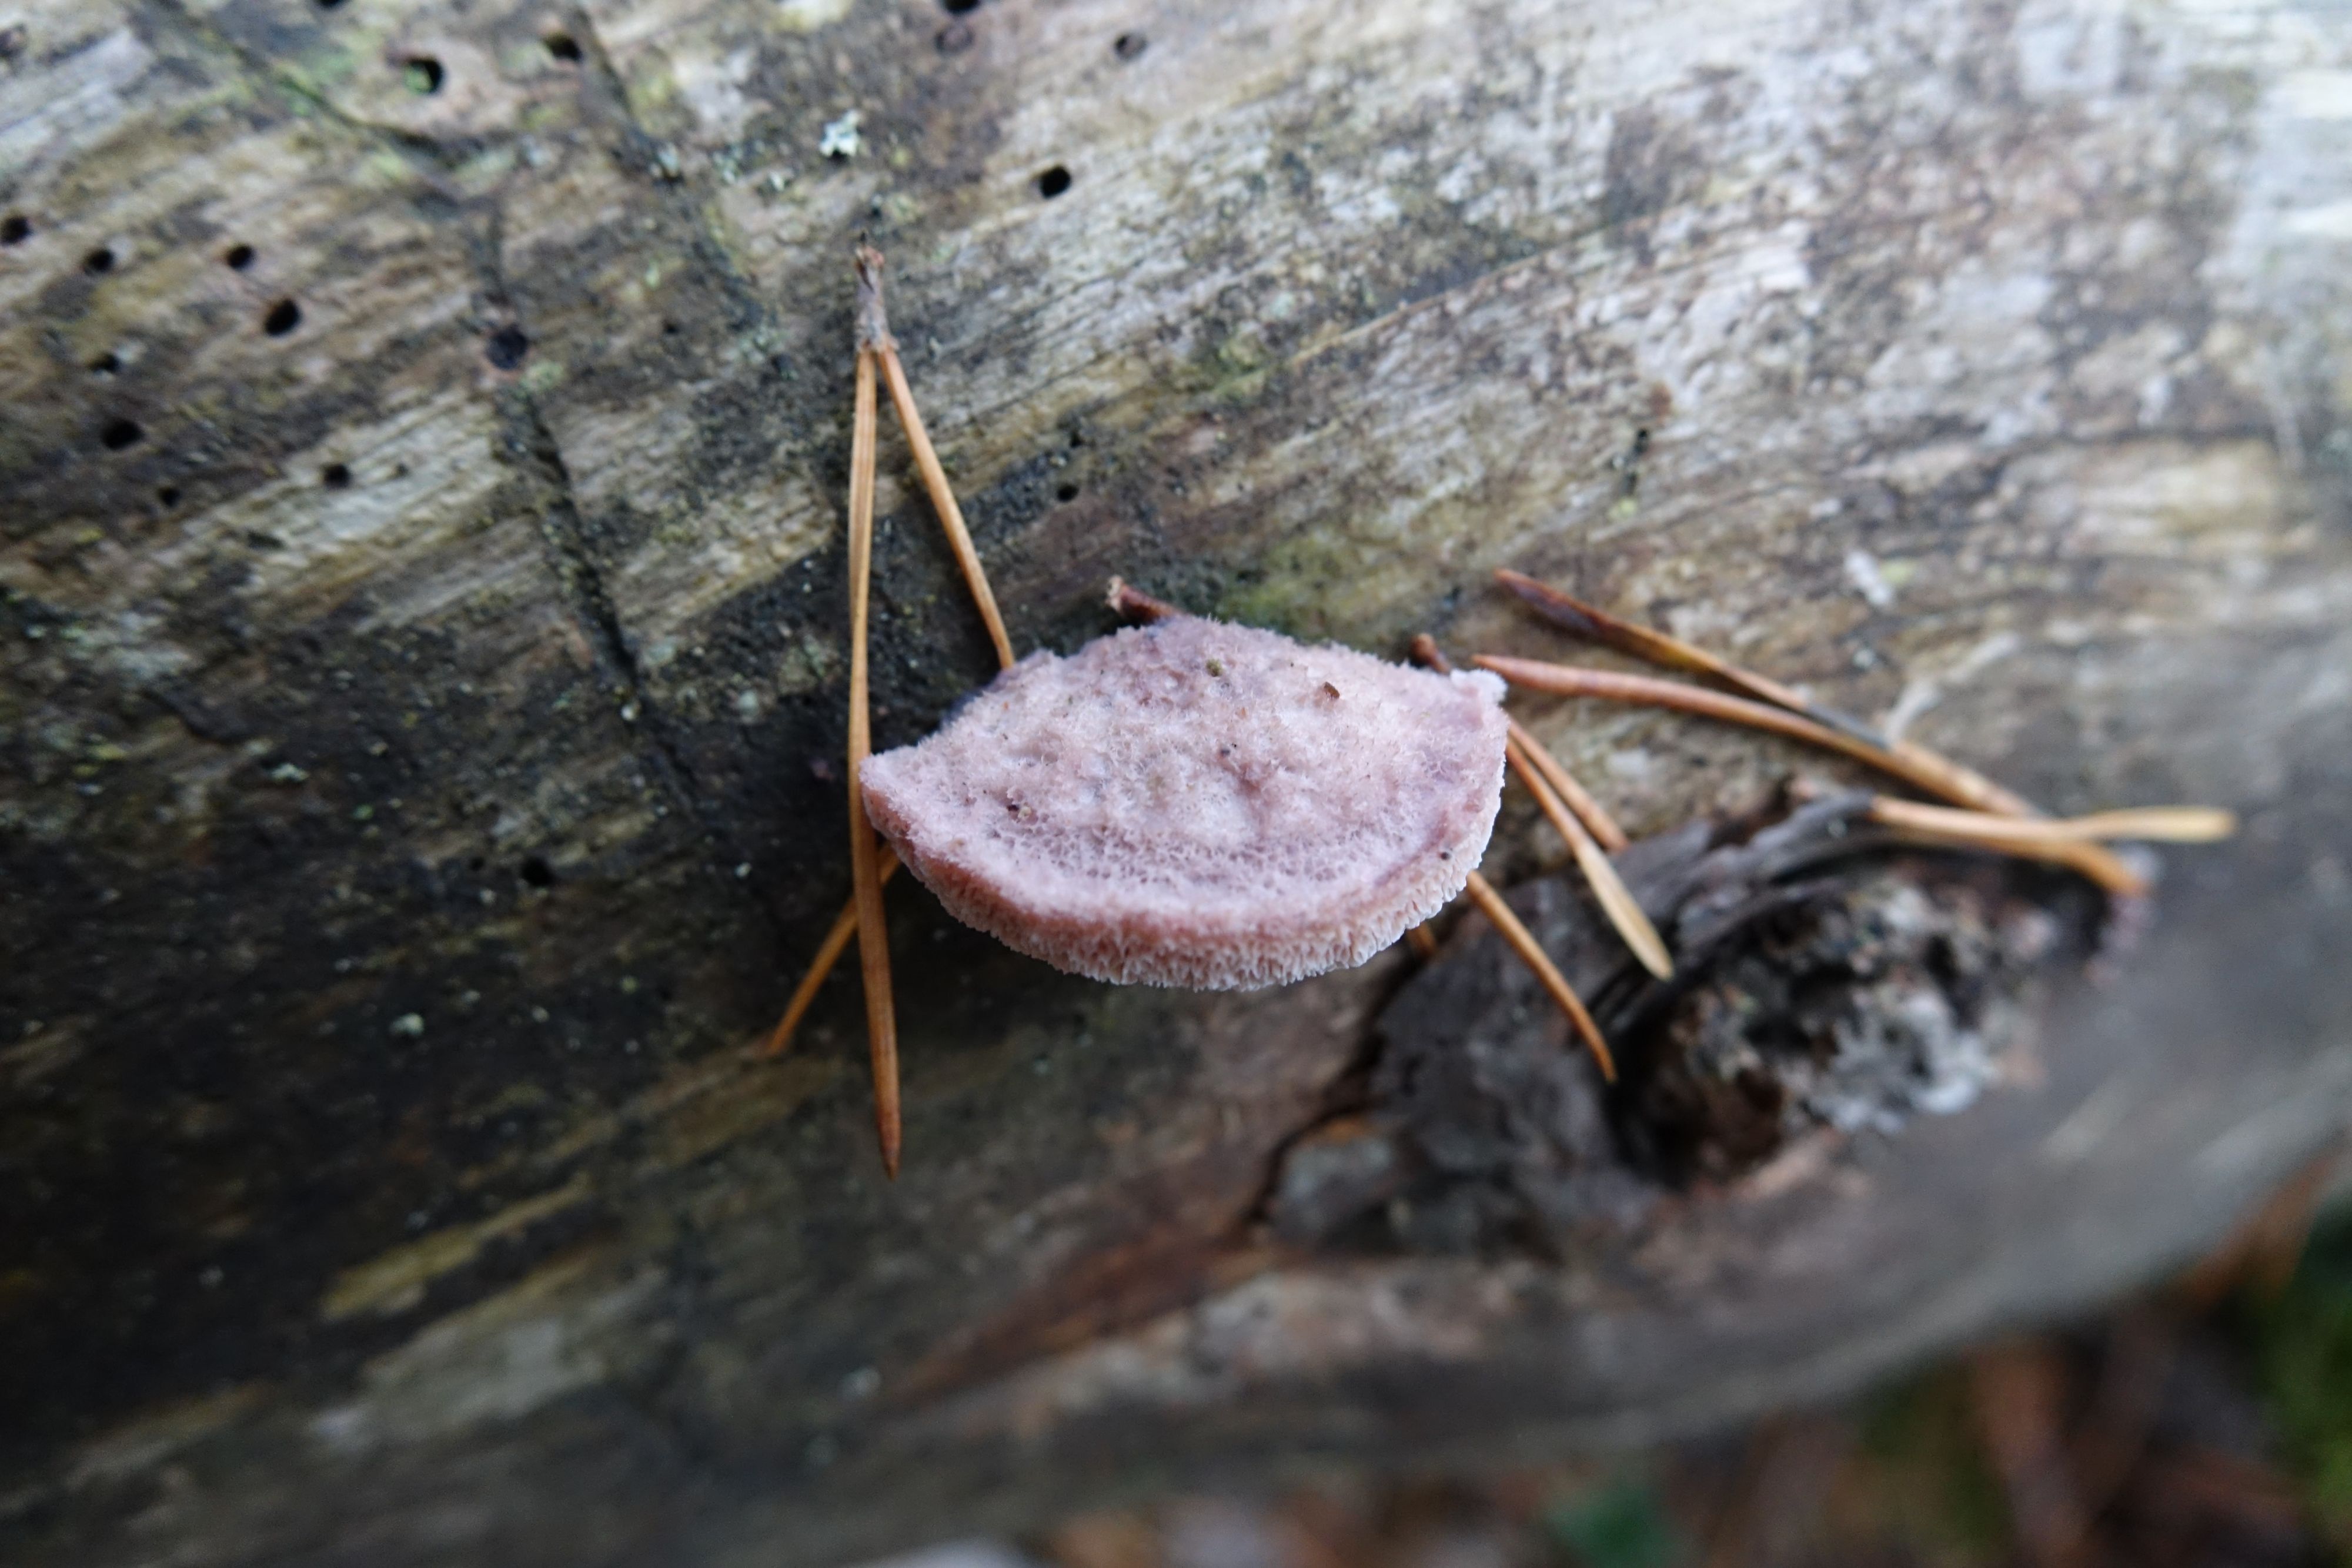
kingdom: Fungi
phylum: Basidiomycota
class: Agaricomycetes
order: Polyporales
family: Irpicaceae
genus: Leptoporus
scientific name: Leptoporus mollis
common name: Soft bracket
